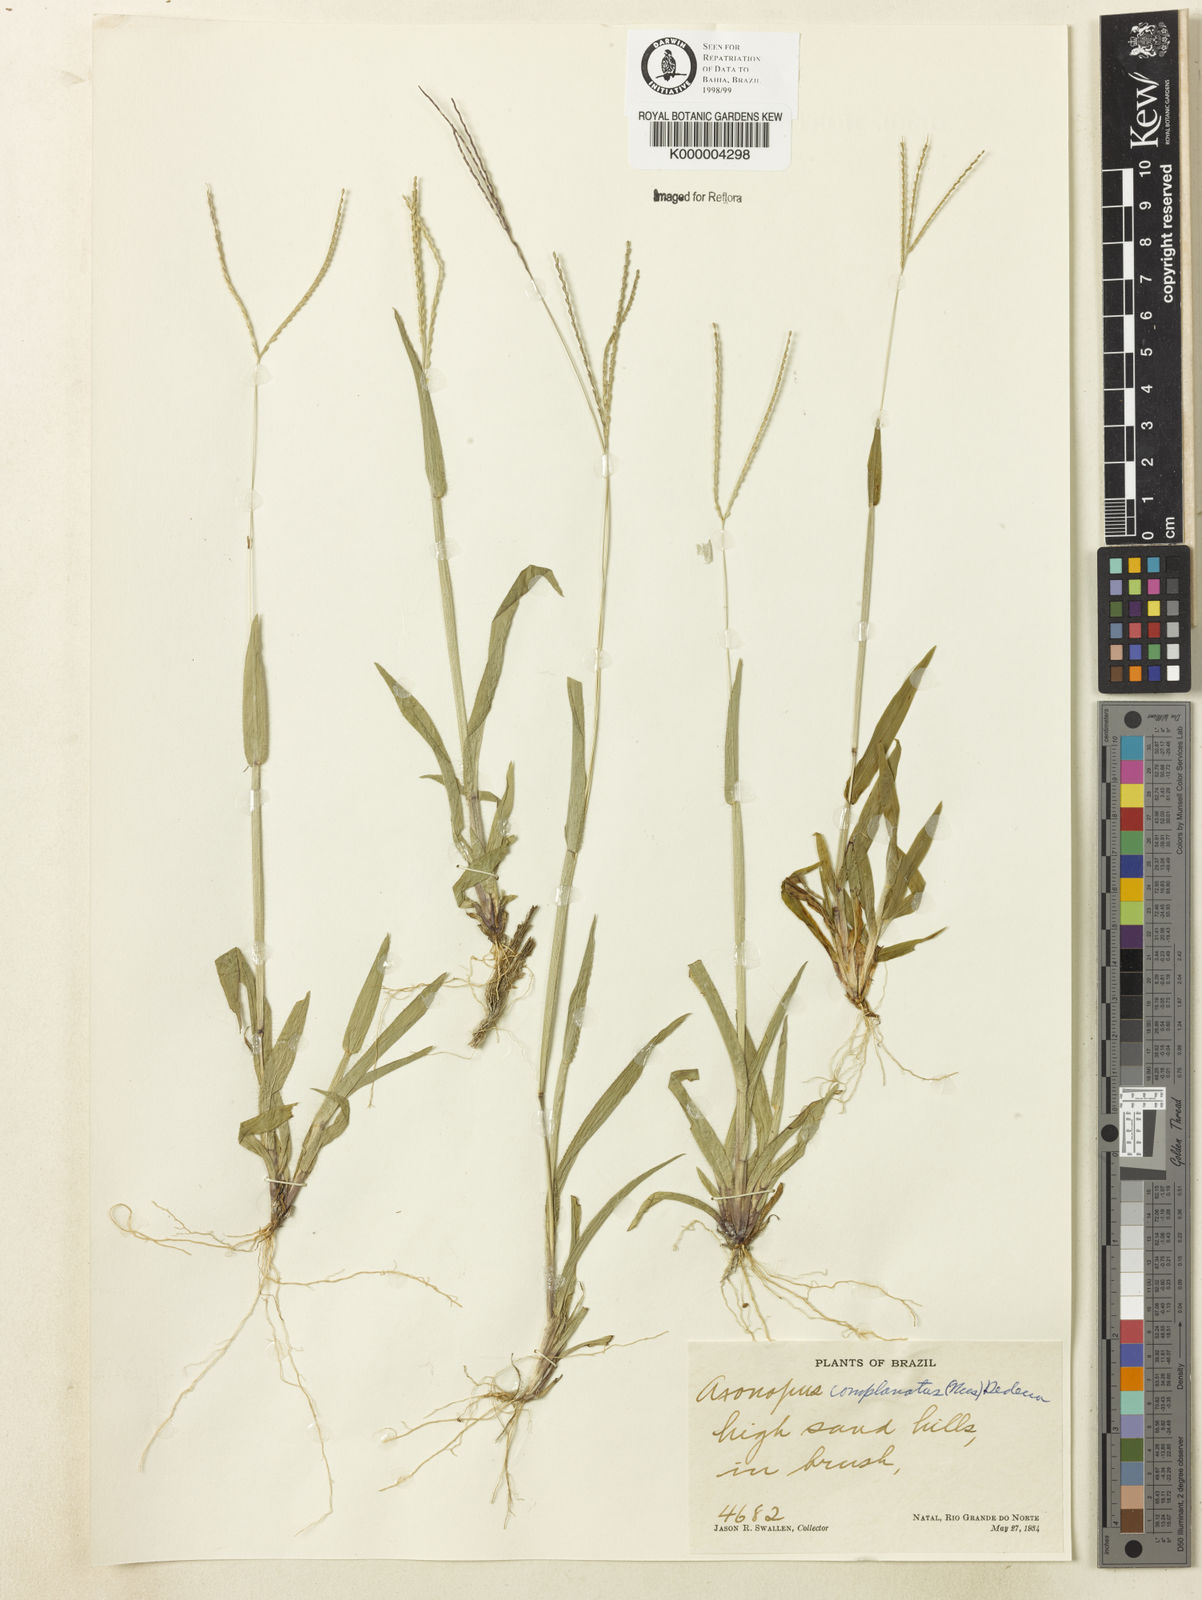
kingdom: Plantae
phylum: Tracheophyta
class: Liliopsida
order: Poales
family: Poaceae
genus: Axonopus
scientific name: Axonopus complanatus
